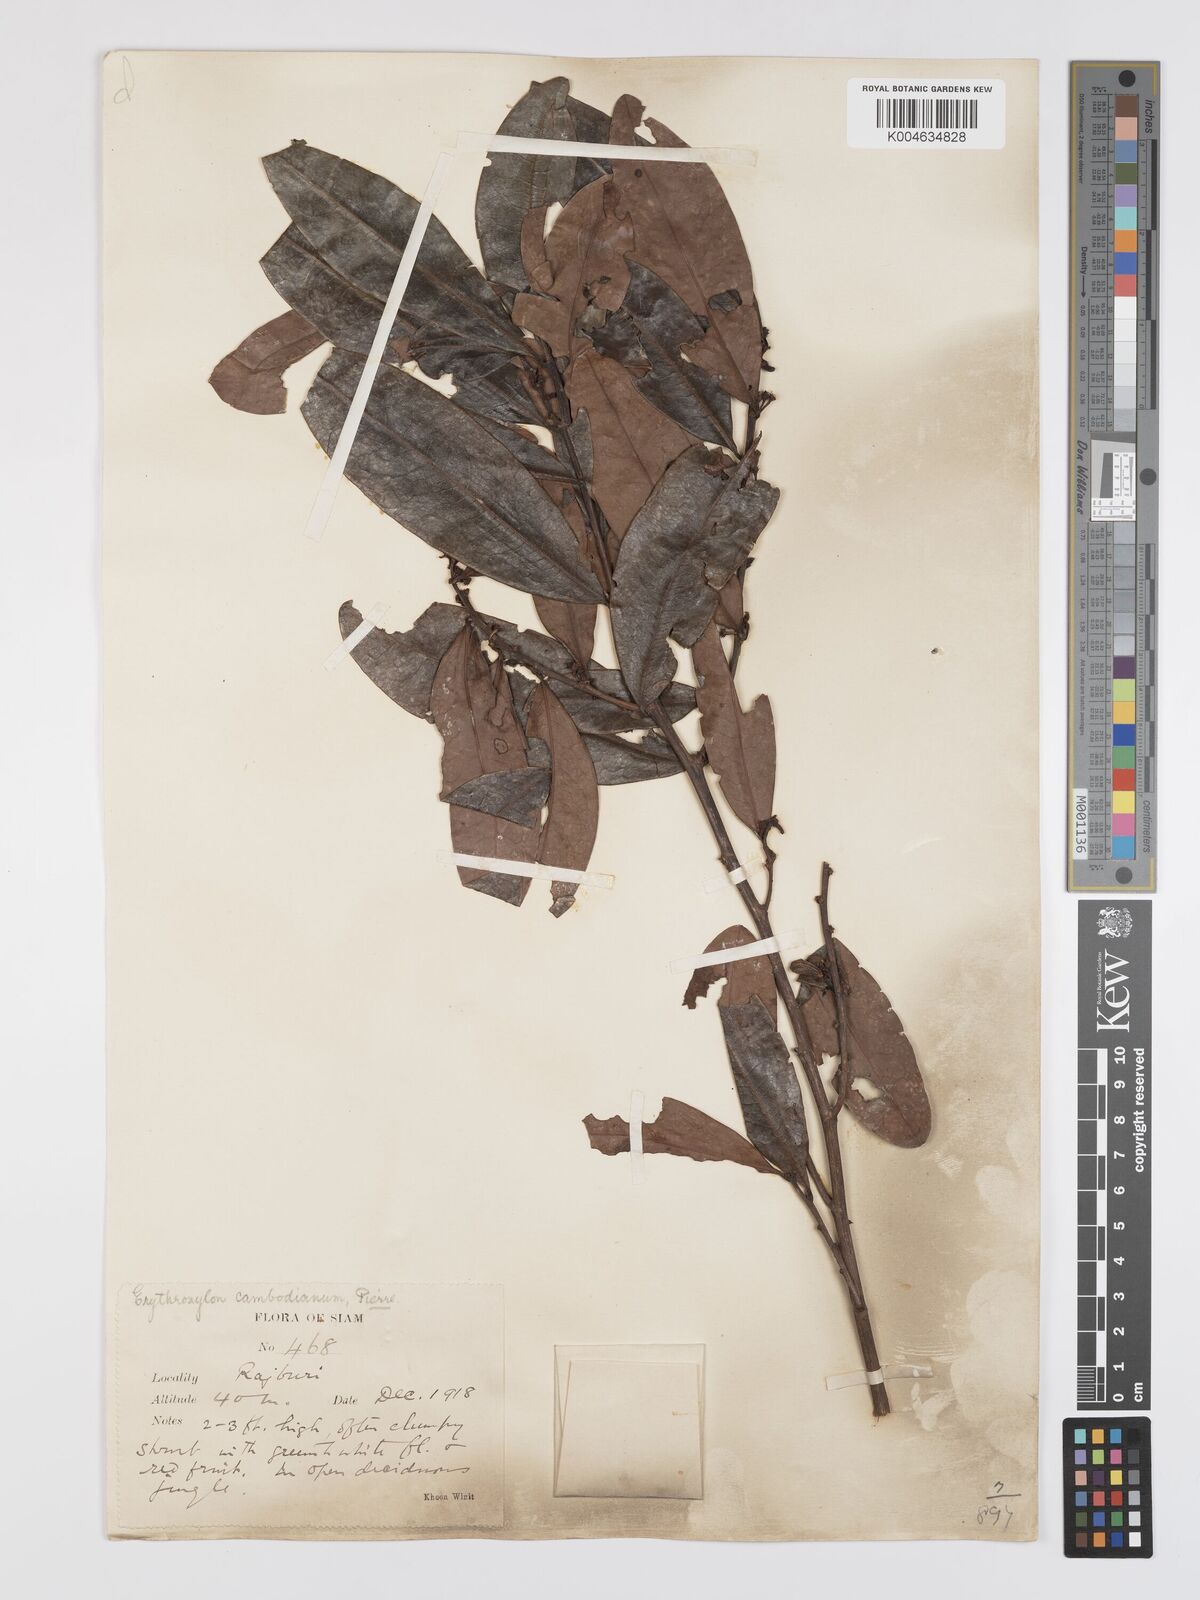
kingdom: Plantae
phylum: Tracheophyta
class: Magnoliopsida
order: Malpighiales
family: Erythroxylaceae
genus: Erythroxylum
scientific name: Erythroxylum cambodianum
